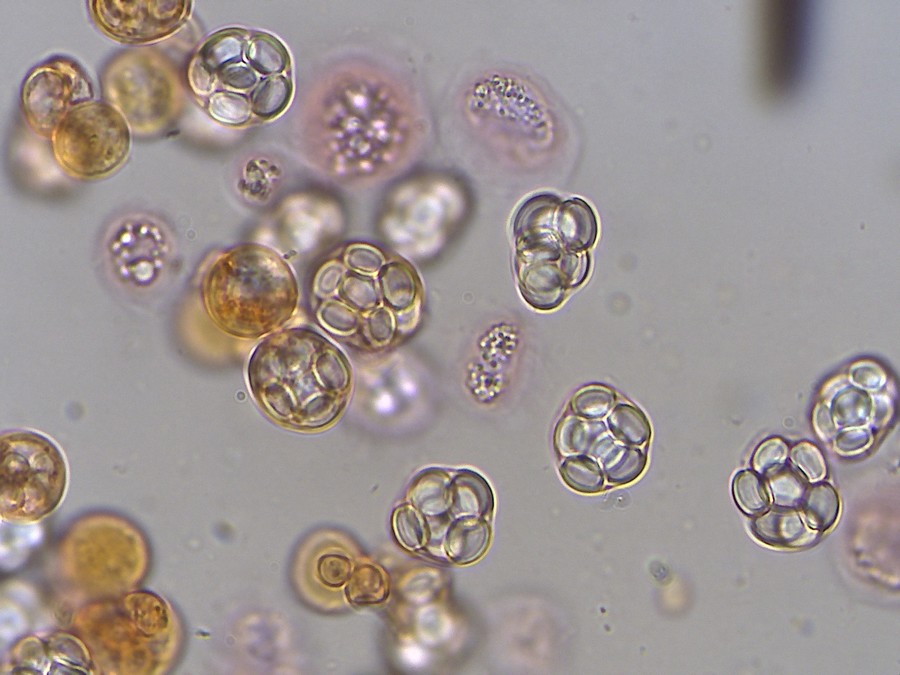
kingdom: Fungi
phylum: Ascomycota
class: Eurotiomycetes
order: Eurotiales
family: Aspergillaceae
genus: Aspergillus
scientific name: Aspergillus glaucus
